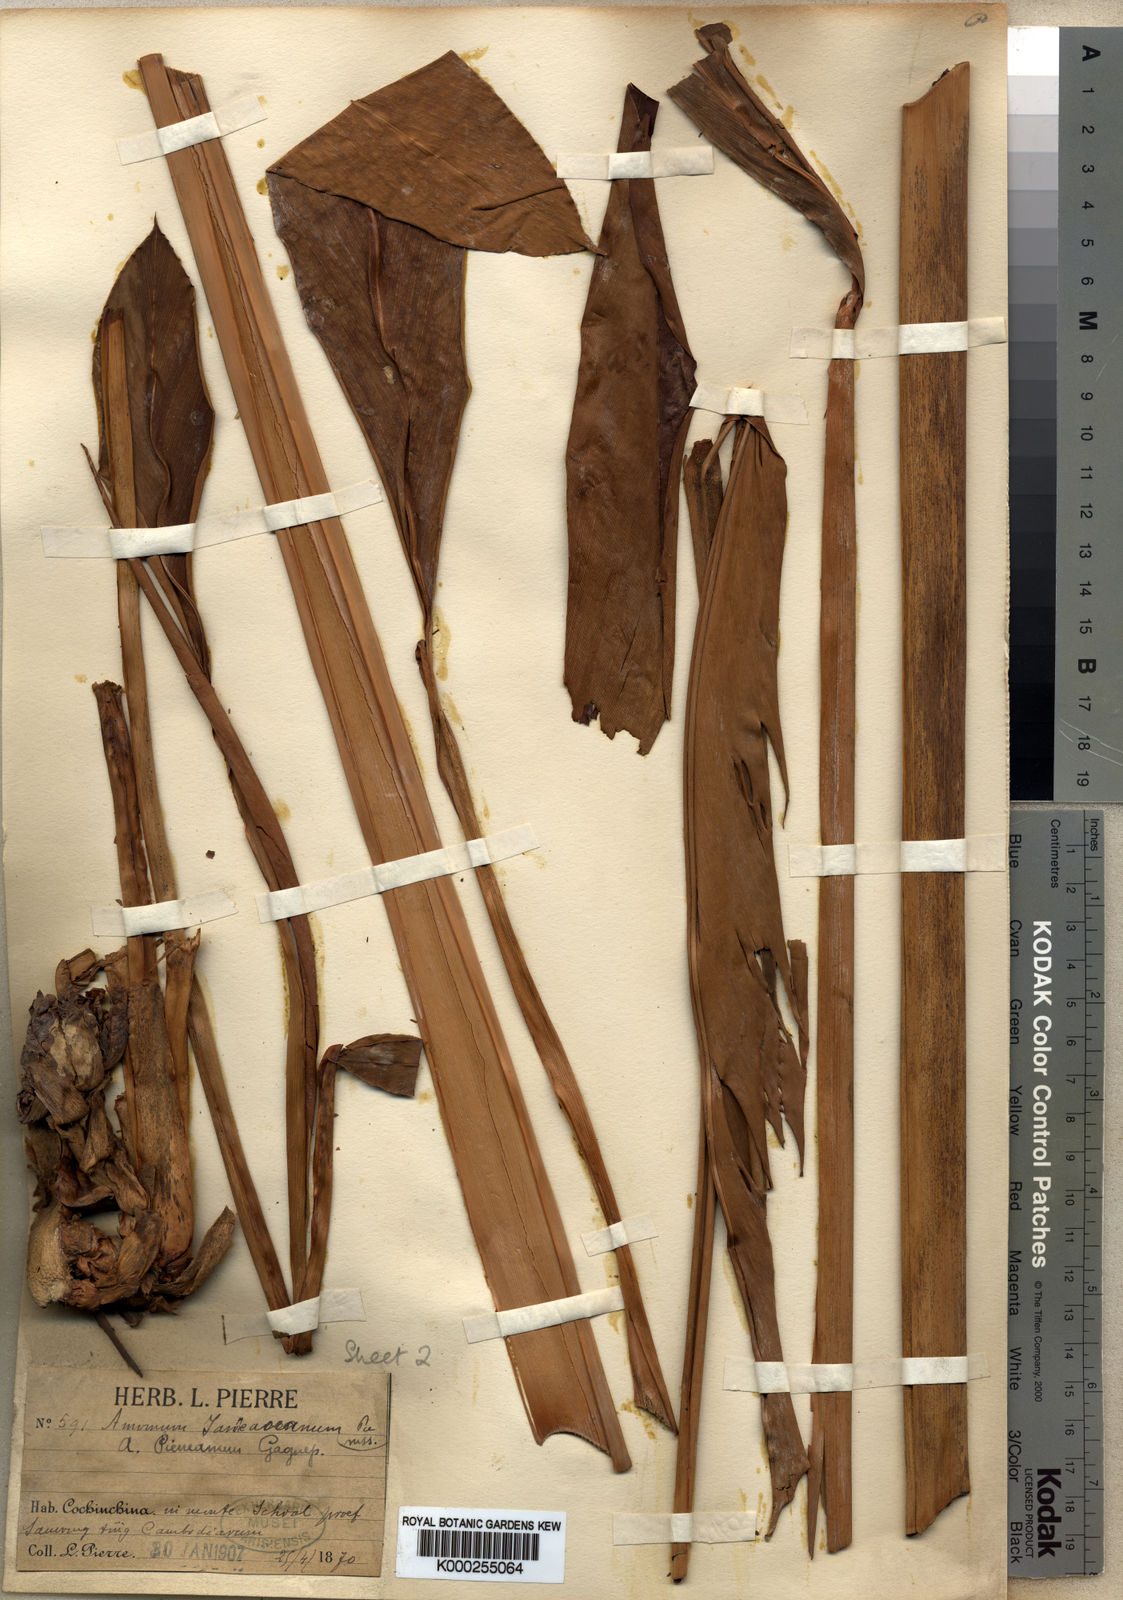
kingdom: Plantae
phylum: Tracheophyta
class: Liliopsida
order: Zingiberales
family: Zingiberaceae
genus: Conamomum
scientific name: Conamomum pierreanum
